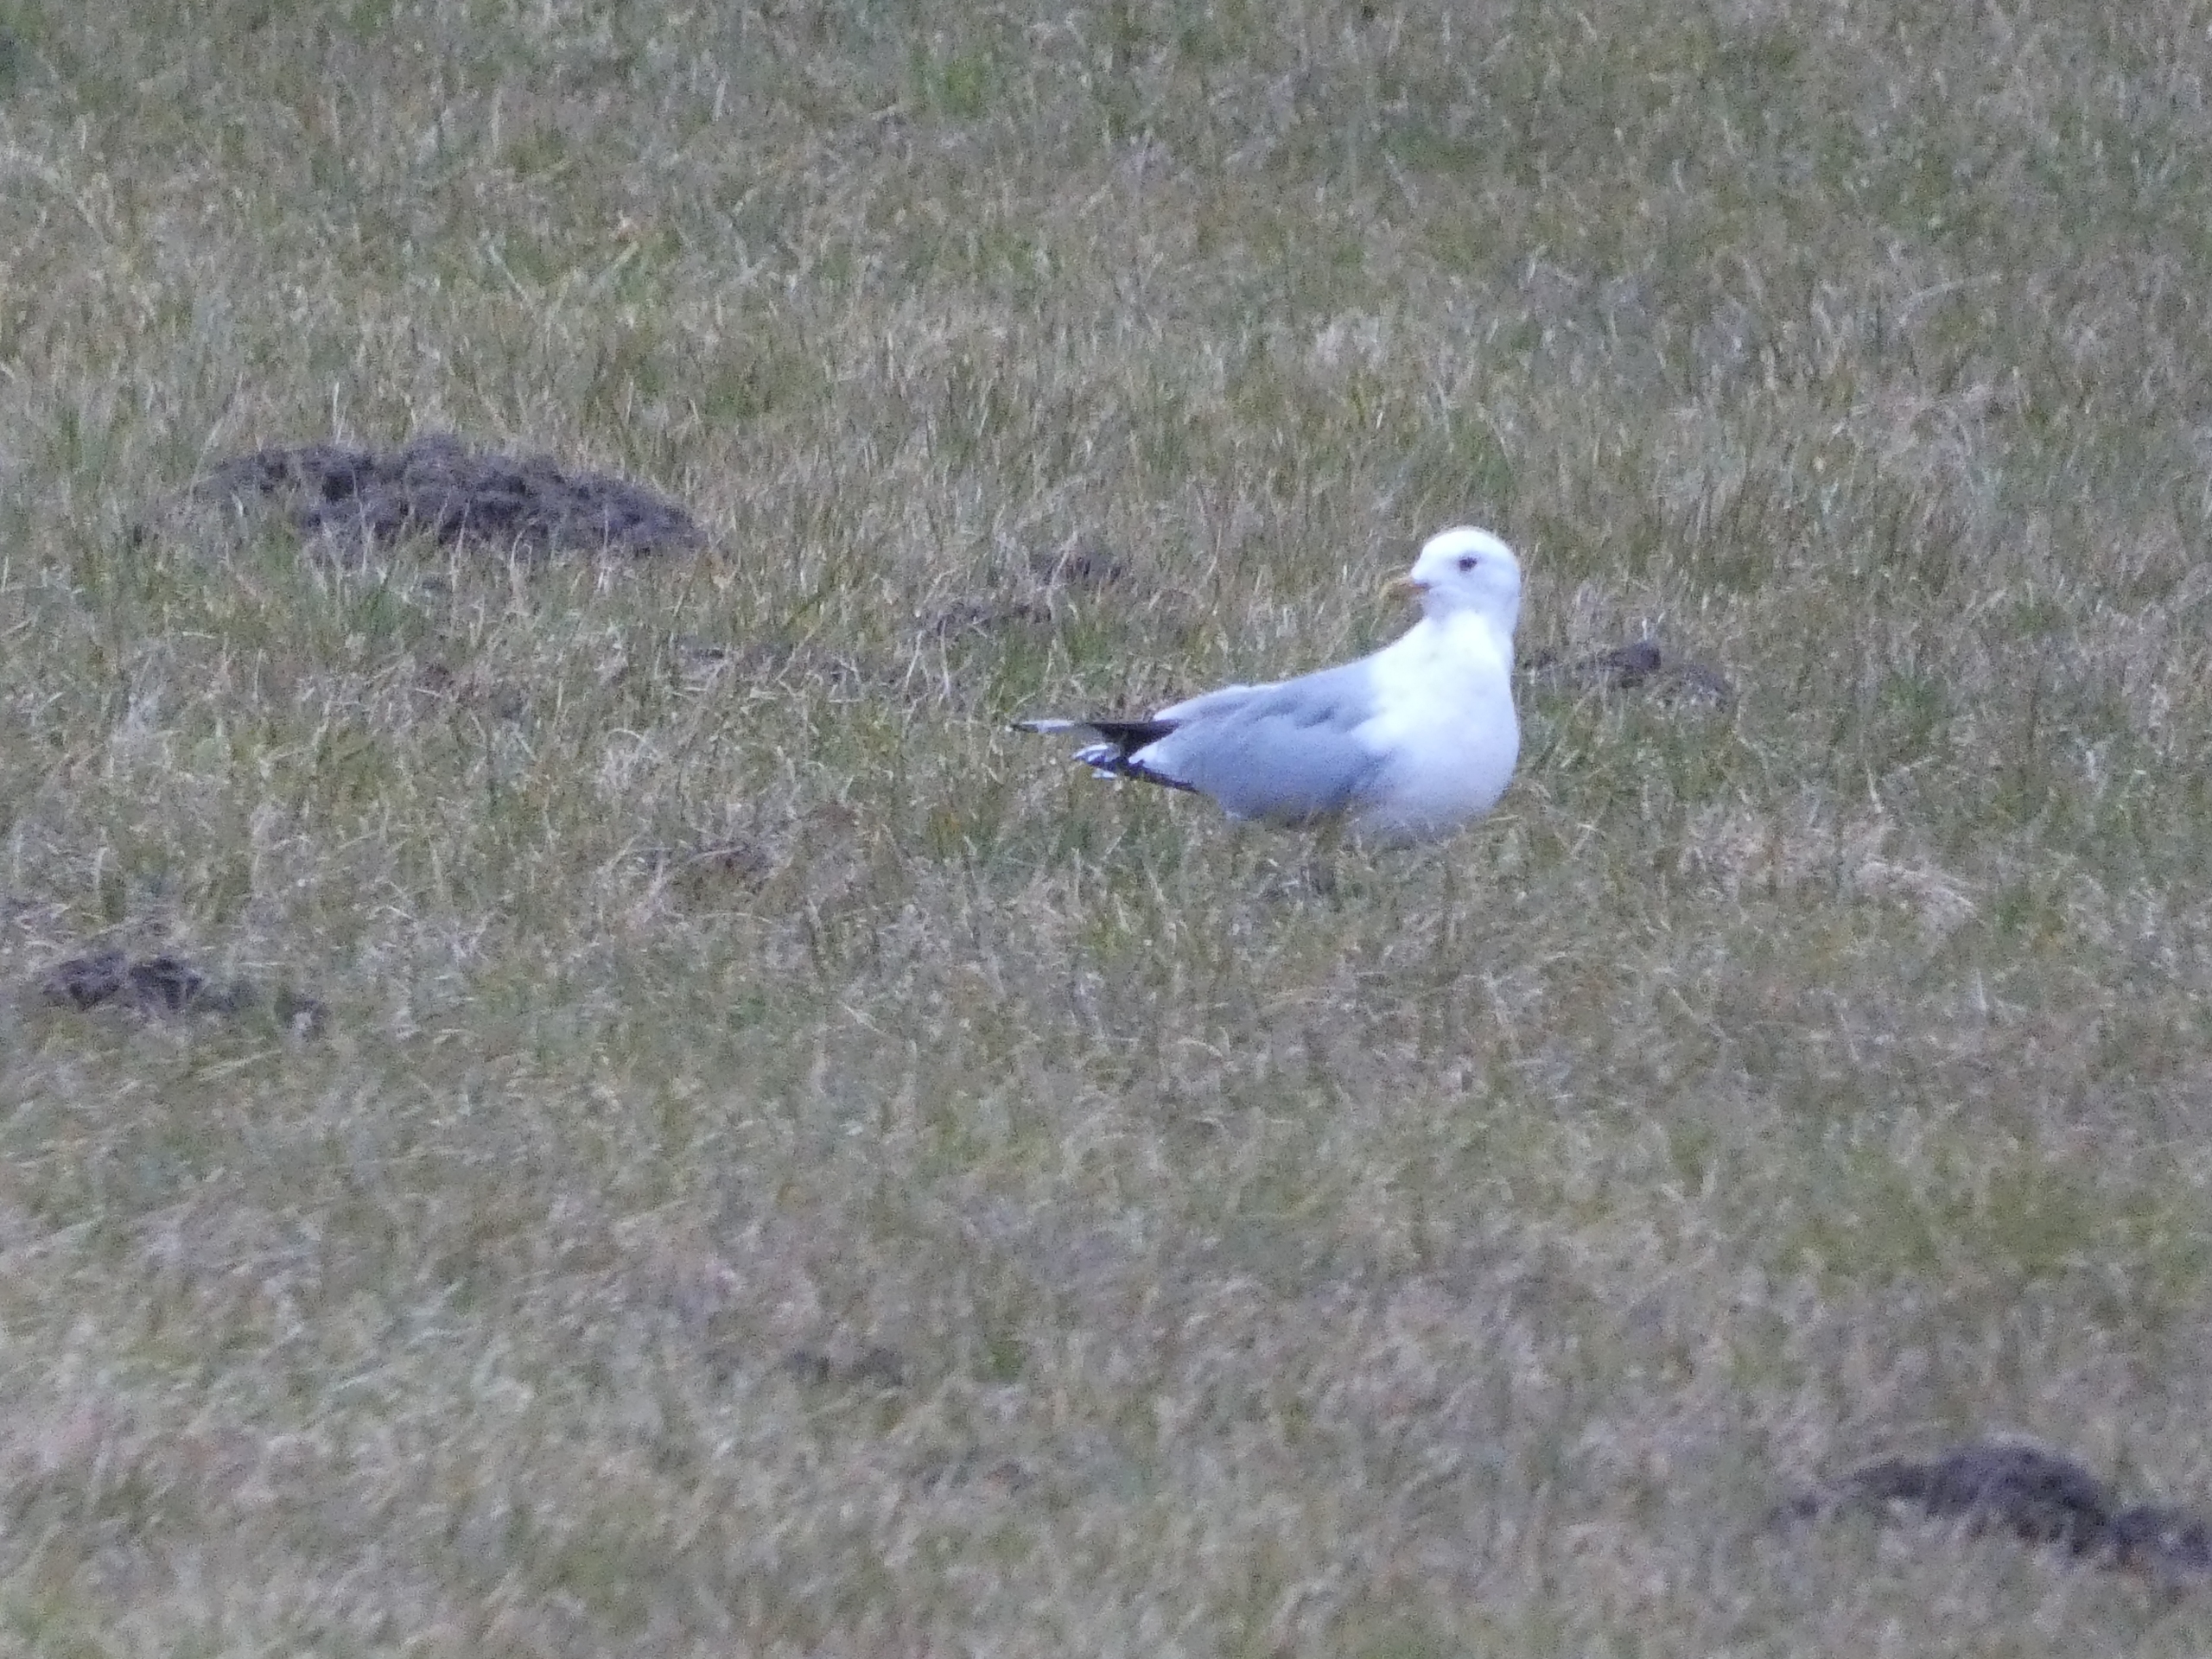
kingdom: Animalia
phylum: Chordata
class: Aves
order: Charadriiformes
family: Laridae
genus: Larus
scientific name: Larus canus
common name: Stormmåge
